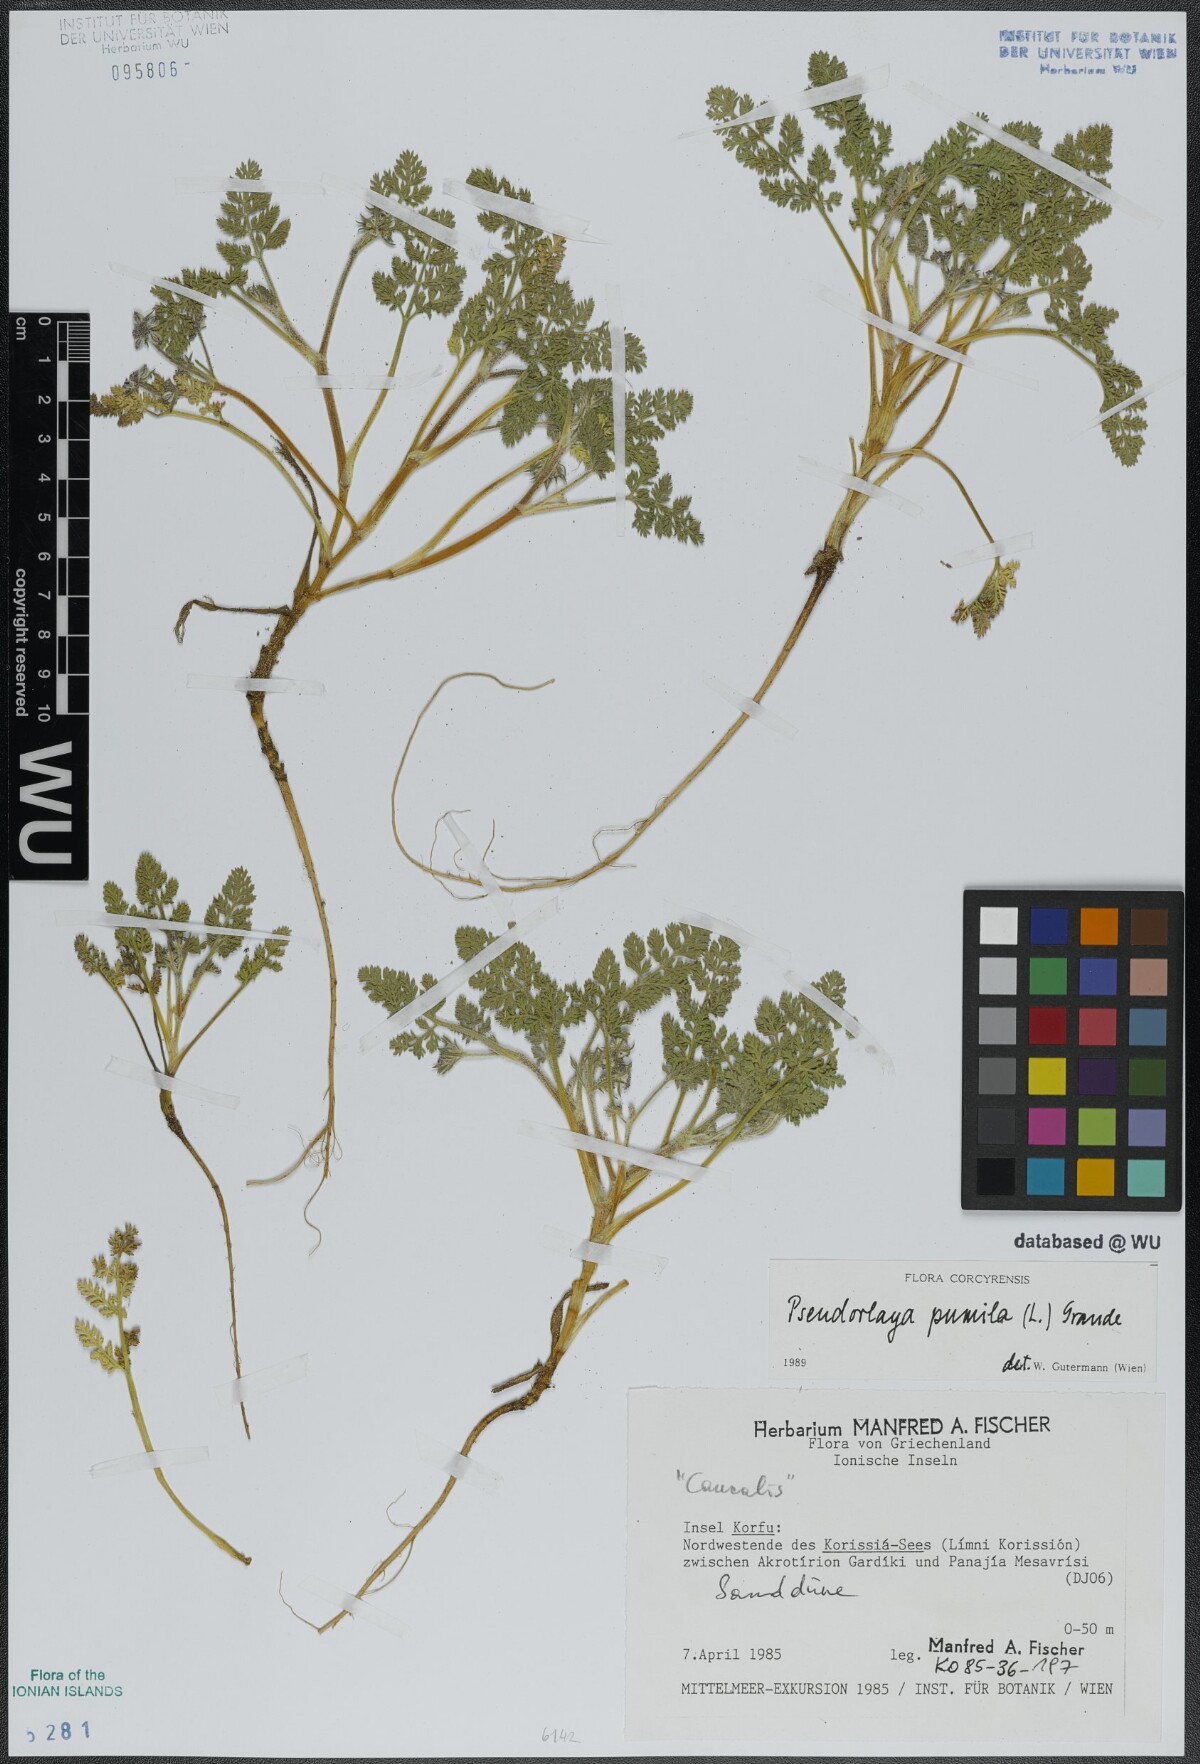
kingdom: Plantae
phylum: Tracheophyta
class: Magnoliopsida
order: Apiales
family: Apiaceae
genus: Daucus
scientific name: Daucus pumilus
